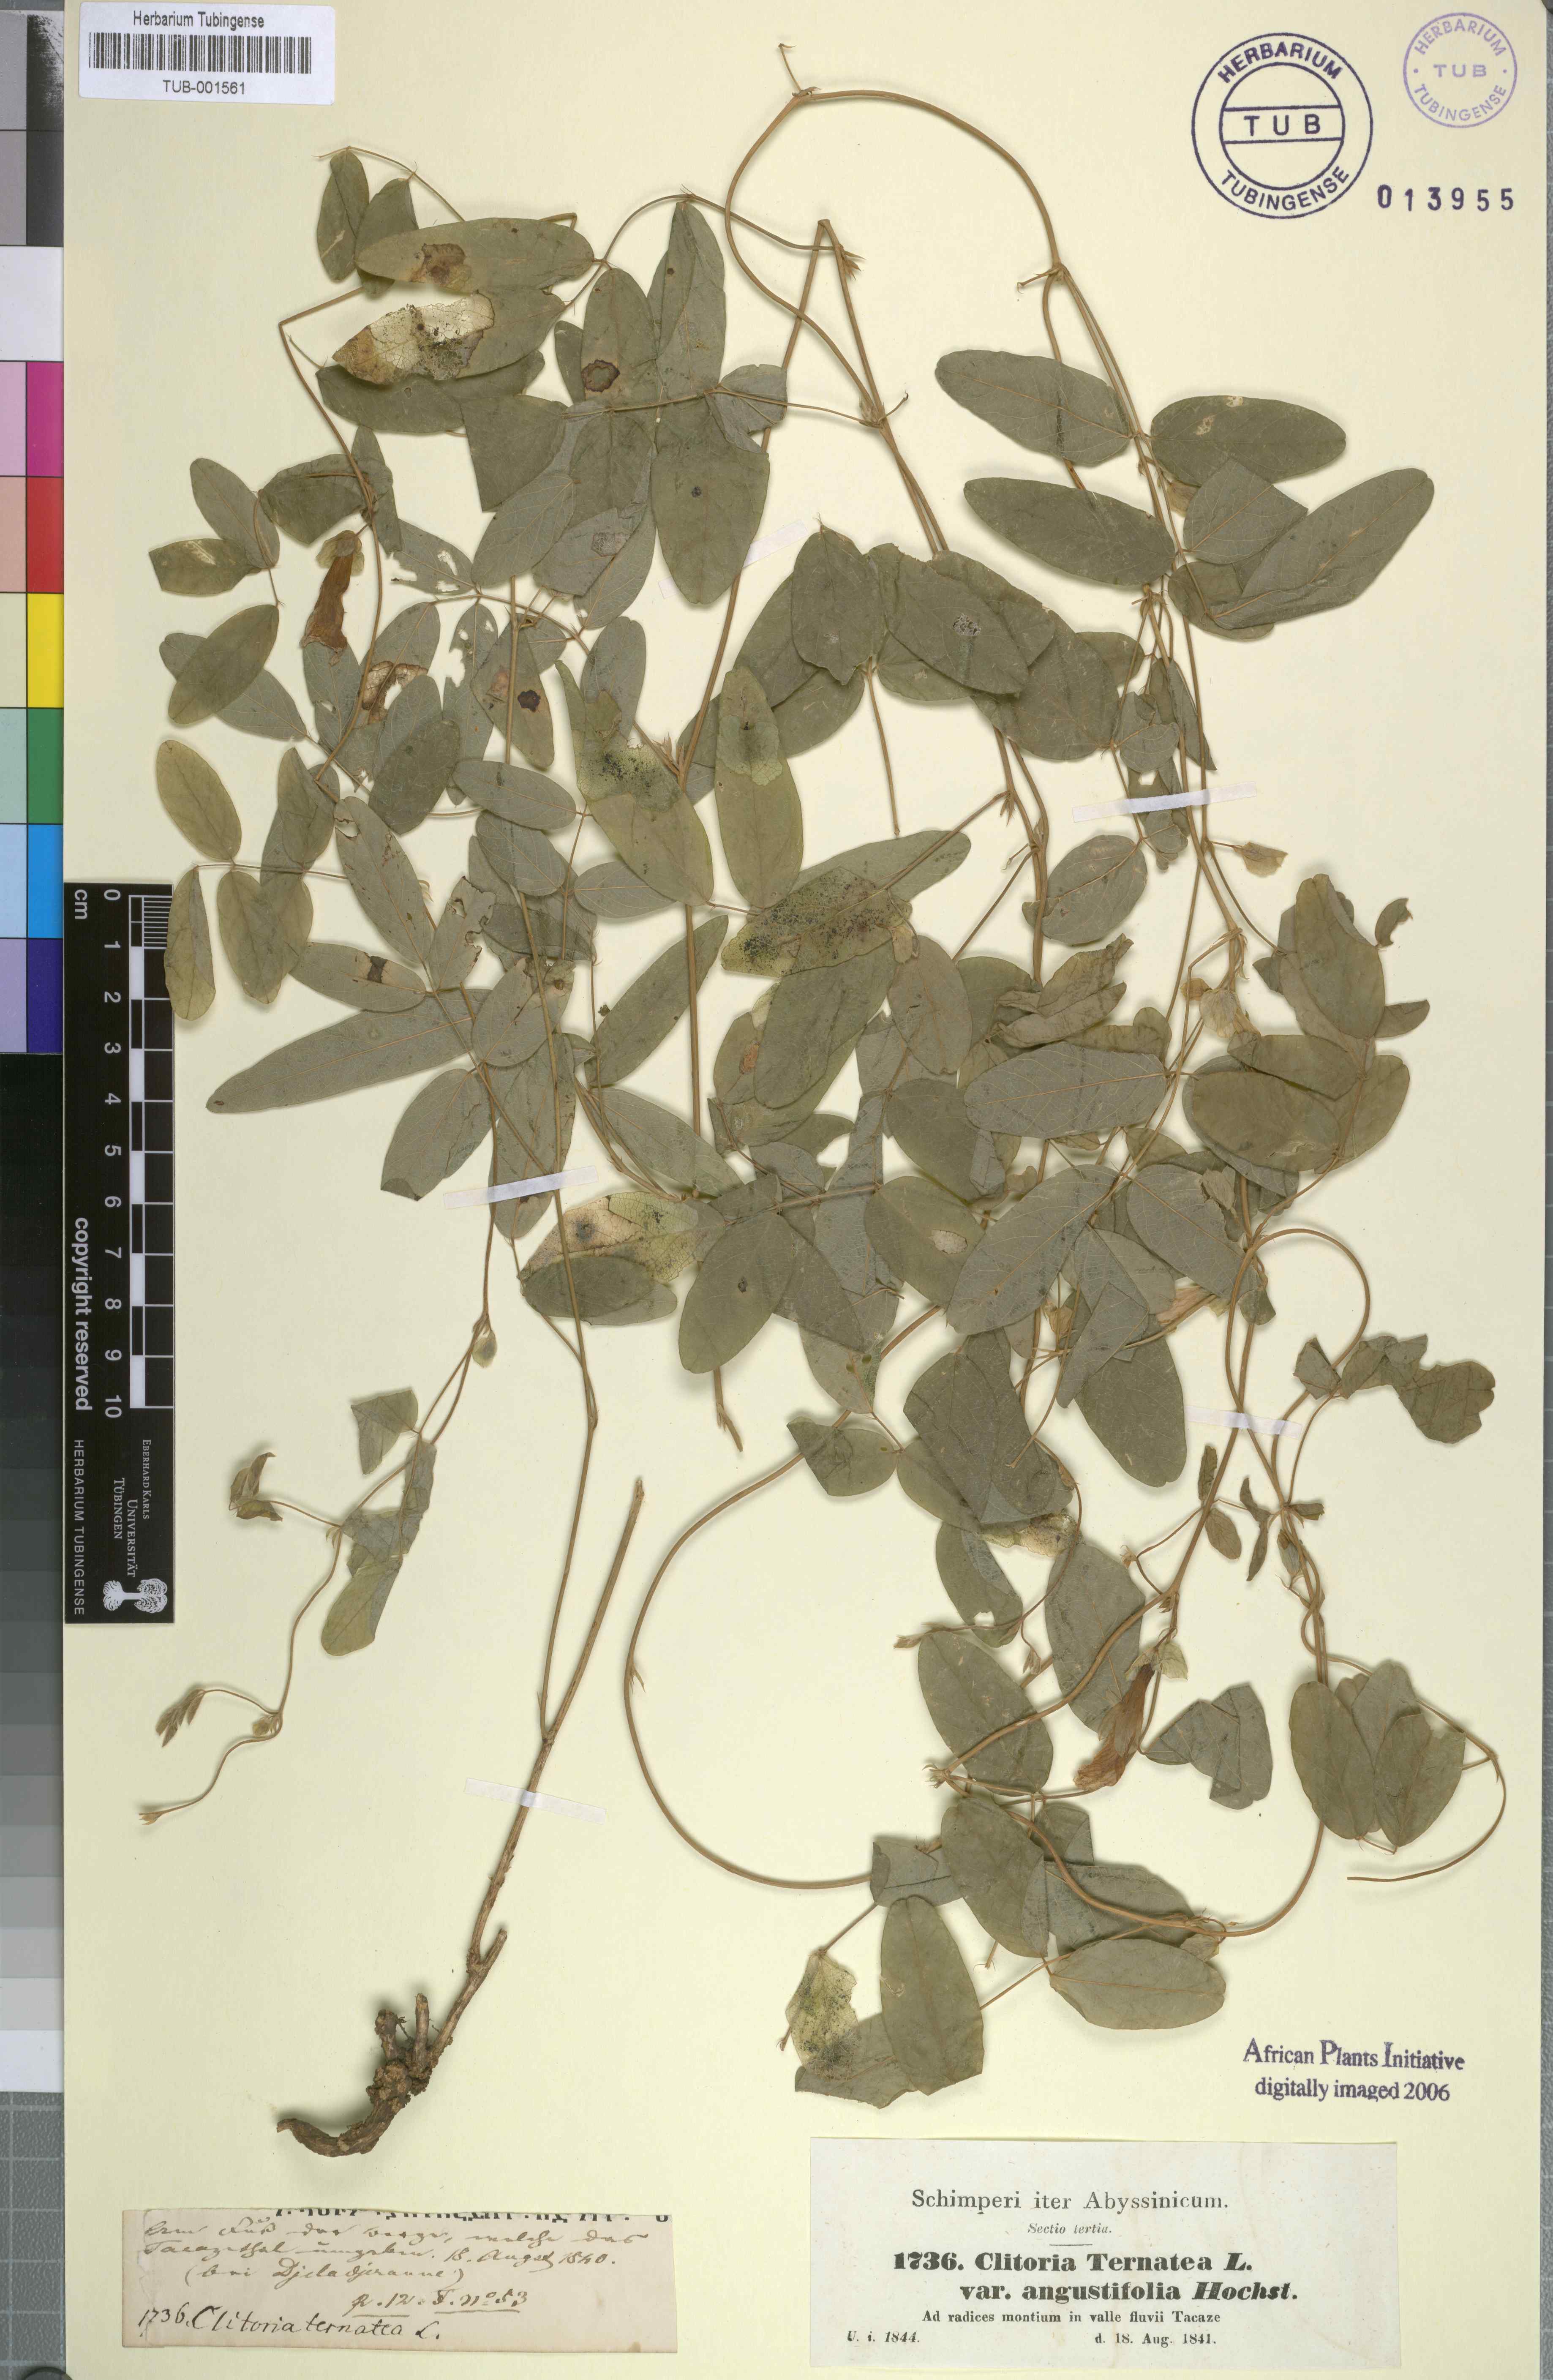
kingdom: Plantae
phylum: Tracheophyta
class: Magnoliopsida
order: Fabales
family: Fabaceae
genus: Clitoria
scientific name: Clitoria ternatea
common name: Asian pigeonwings
